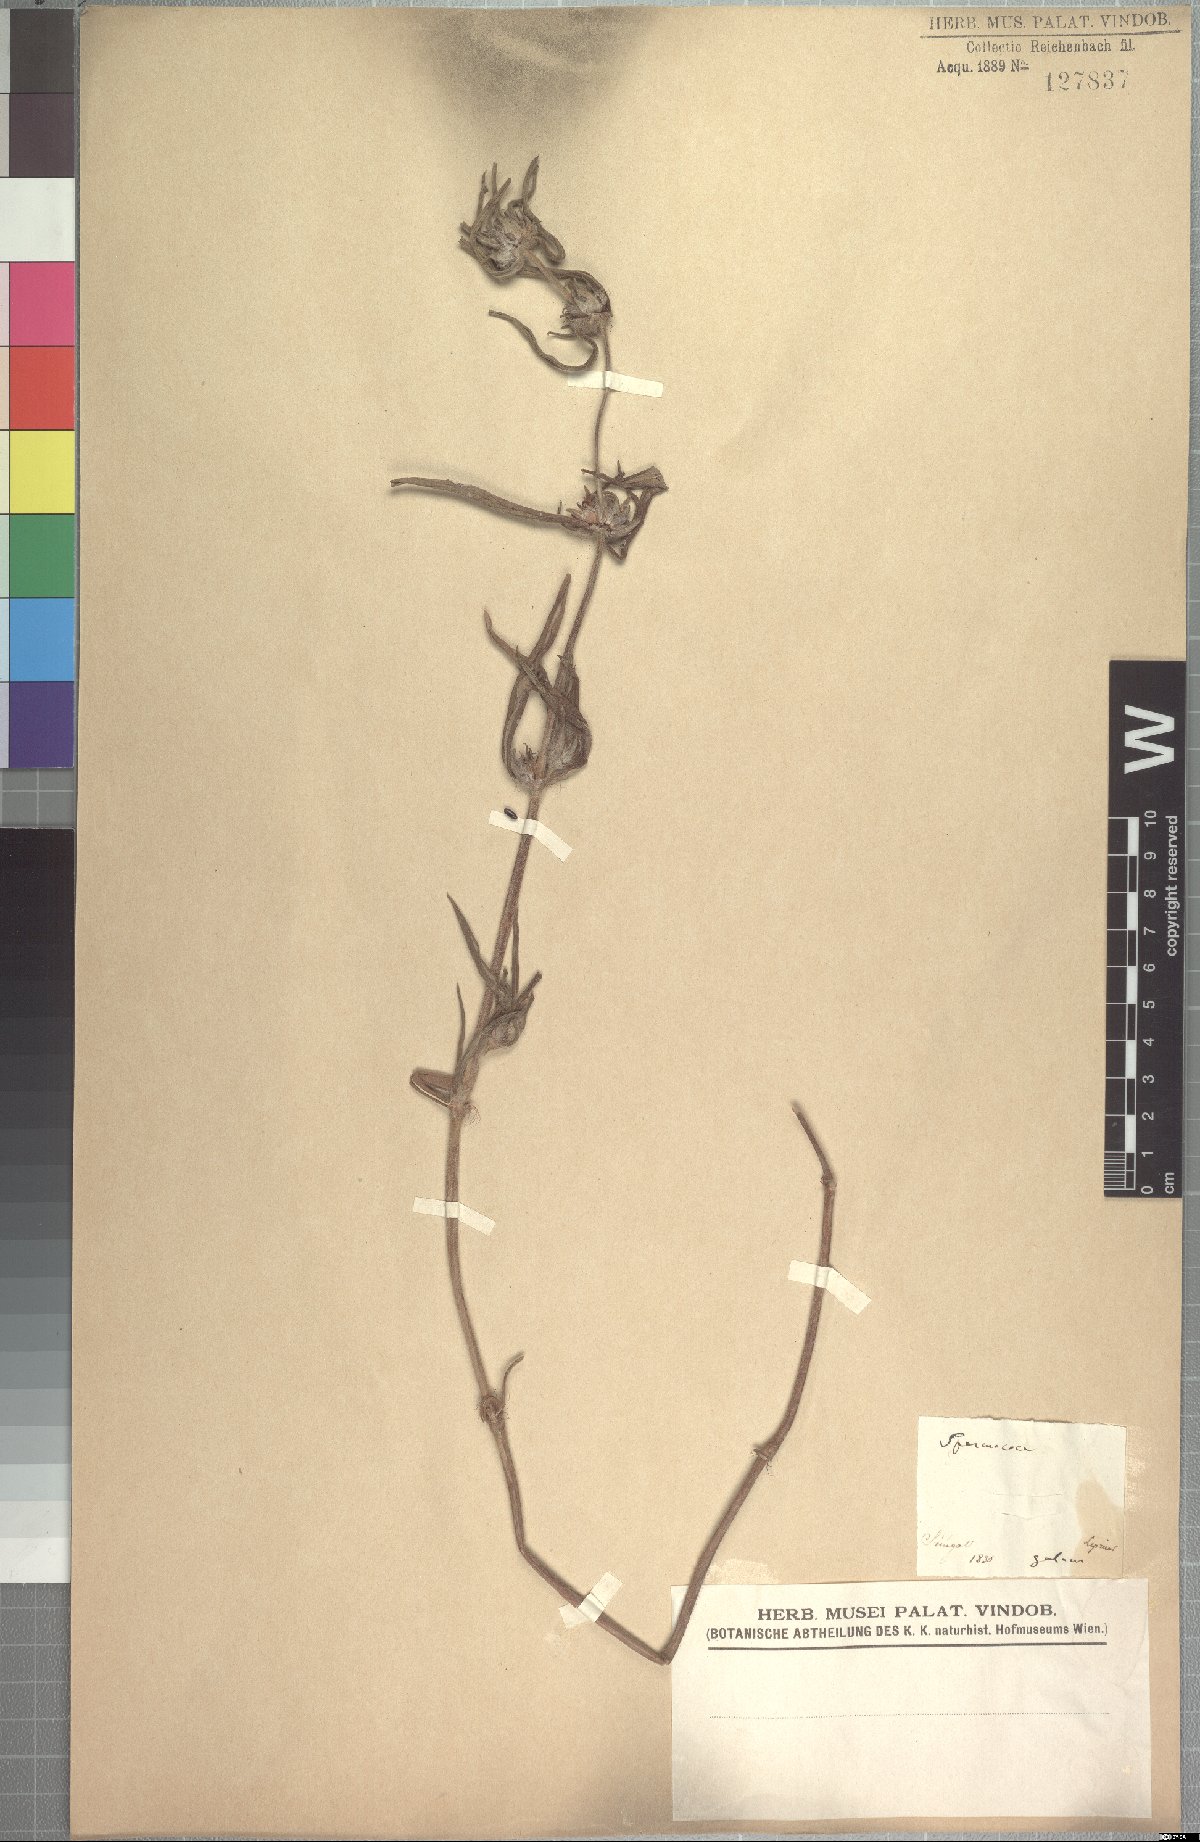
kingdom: Plantae
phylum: Tracheophyta
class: Magnoliopsida
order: Gentianales
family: Rubiaceae
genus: Spermacoce
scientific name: Spermacoce chaetocephala
